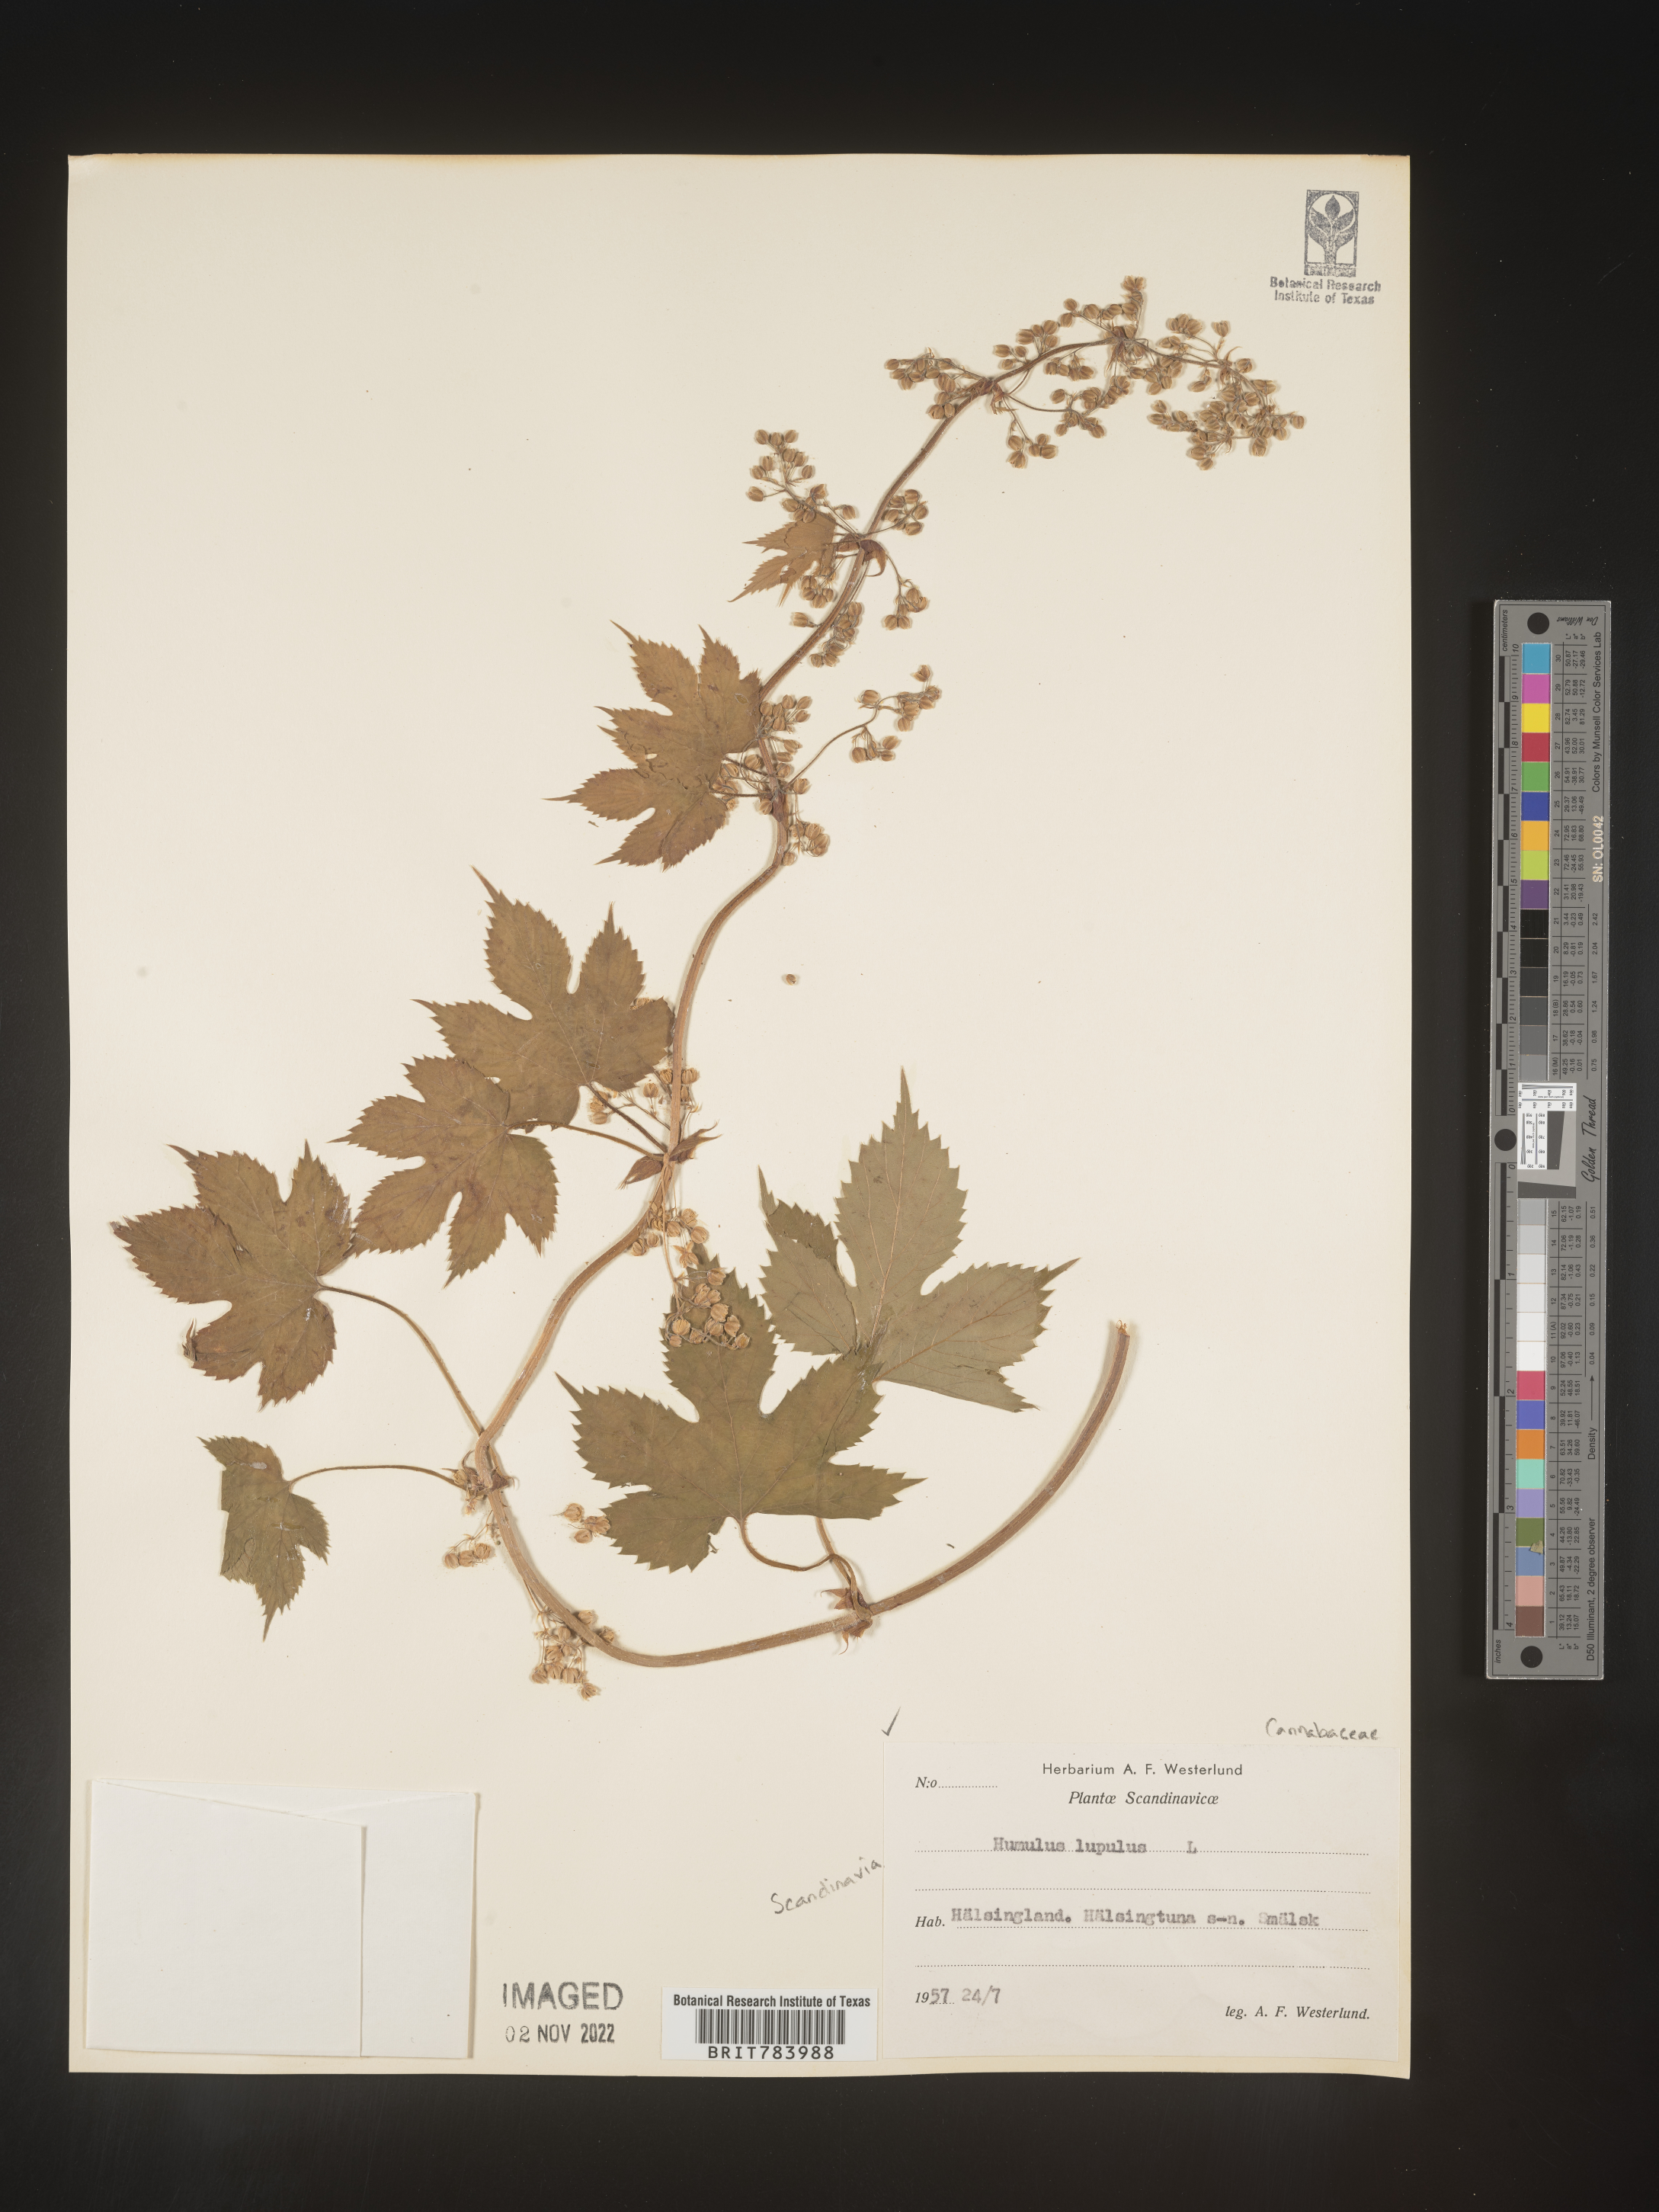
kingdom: Plantae
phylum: Tracheophyta
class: Magnoliopsida
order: Rosales
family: Cannabaceae
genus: Humulus
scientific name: Humulus
